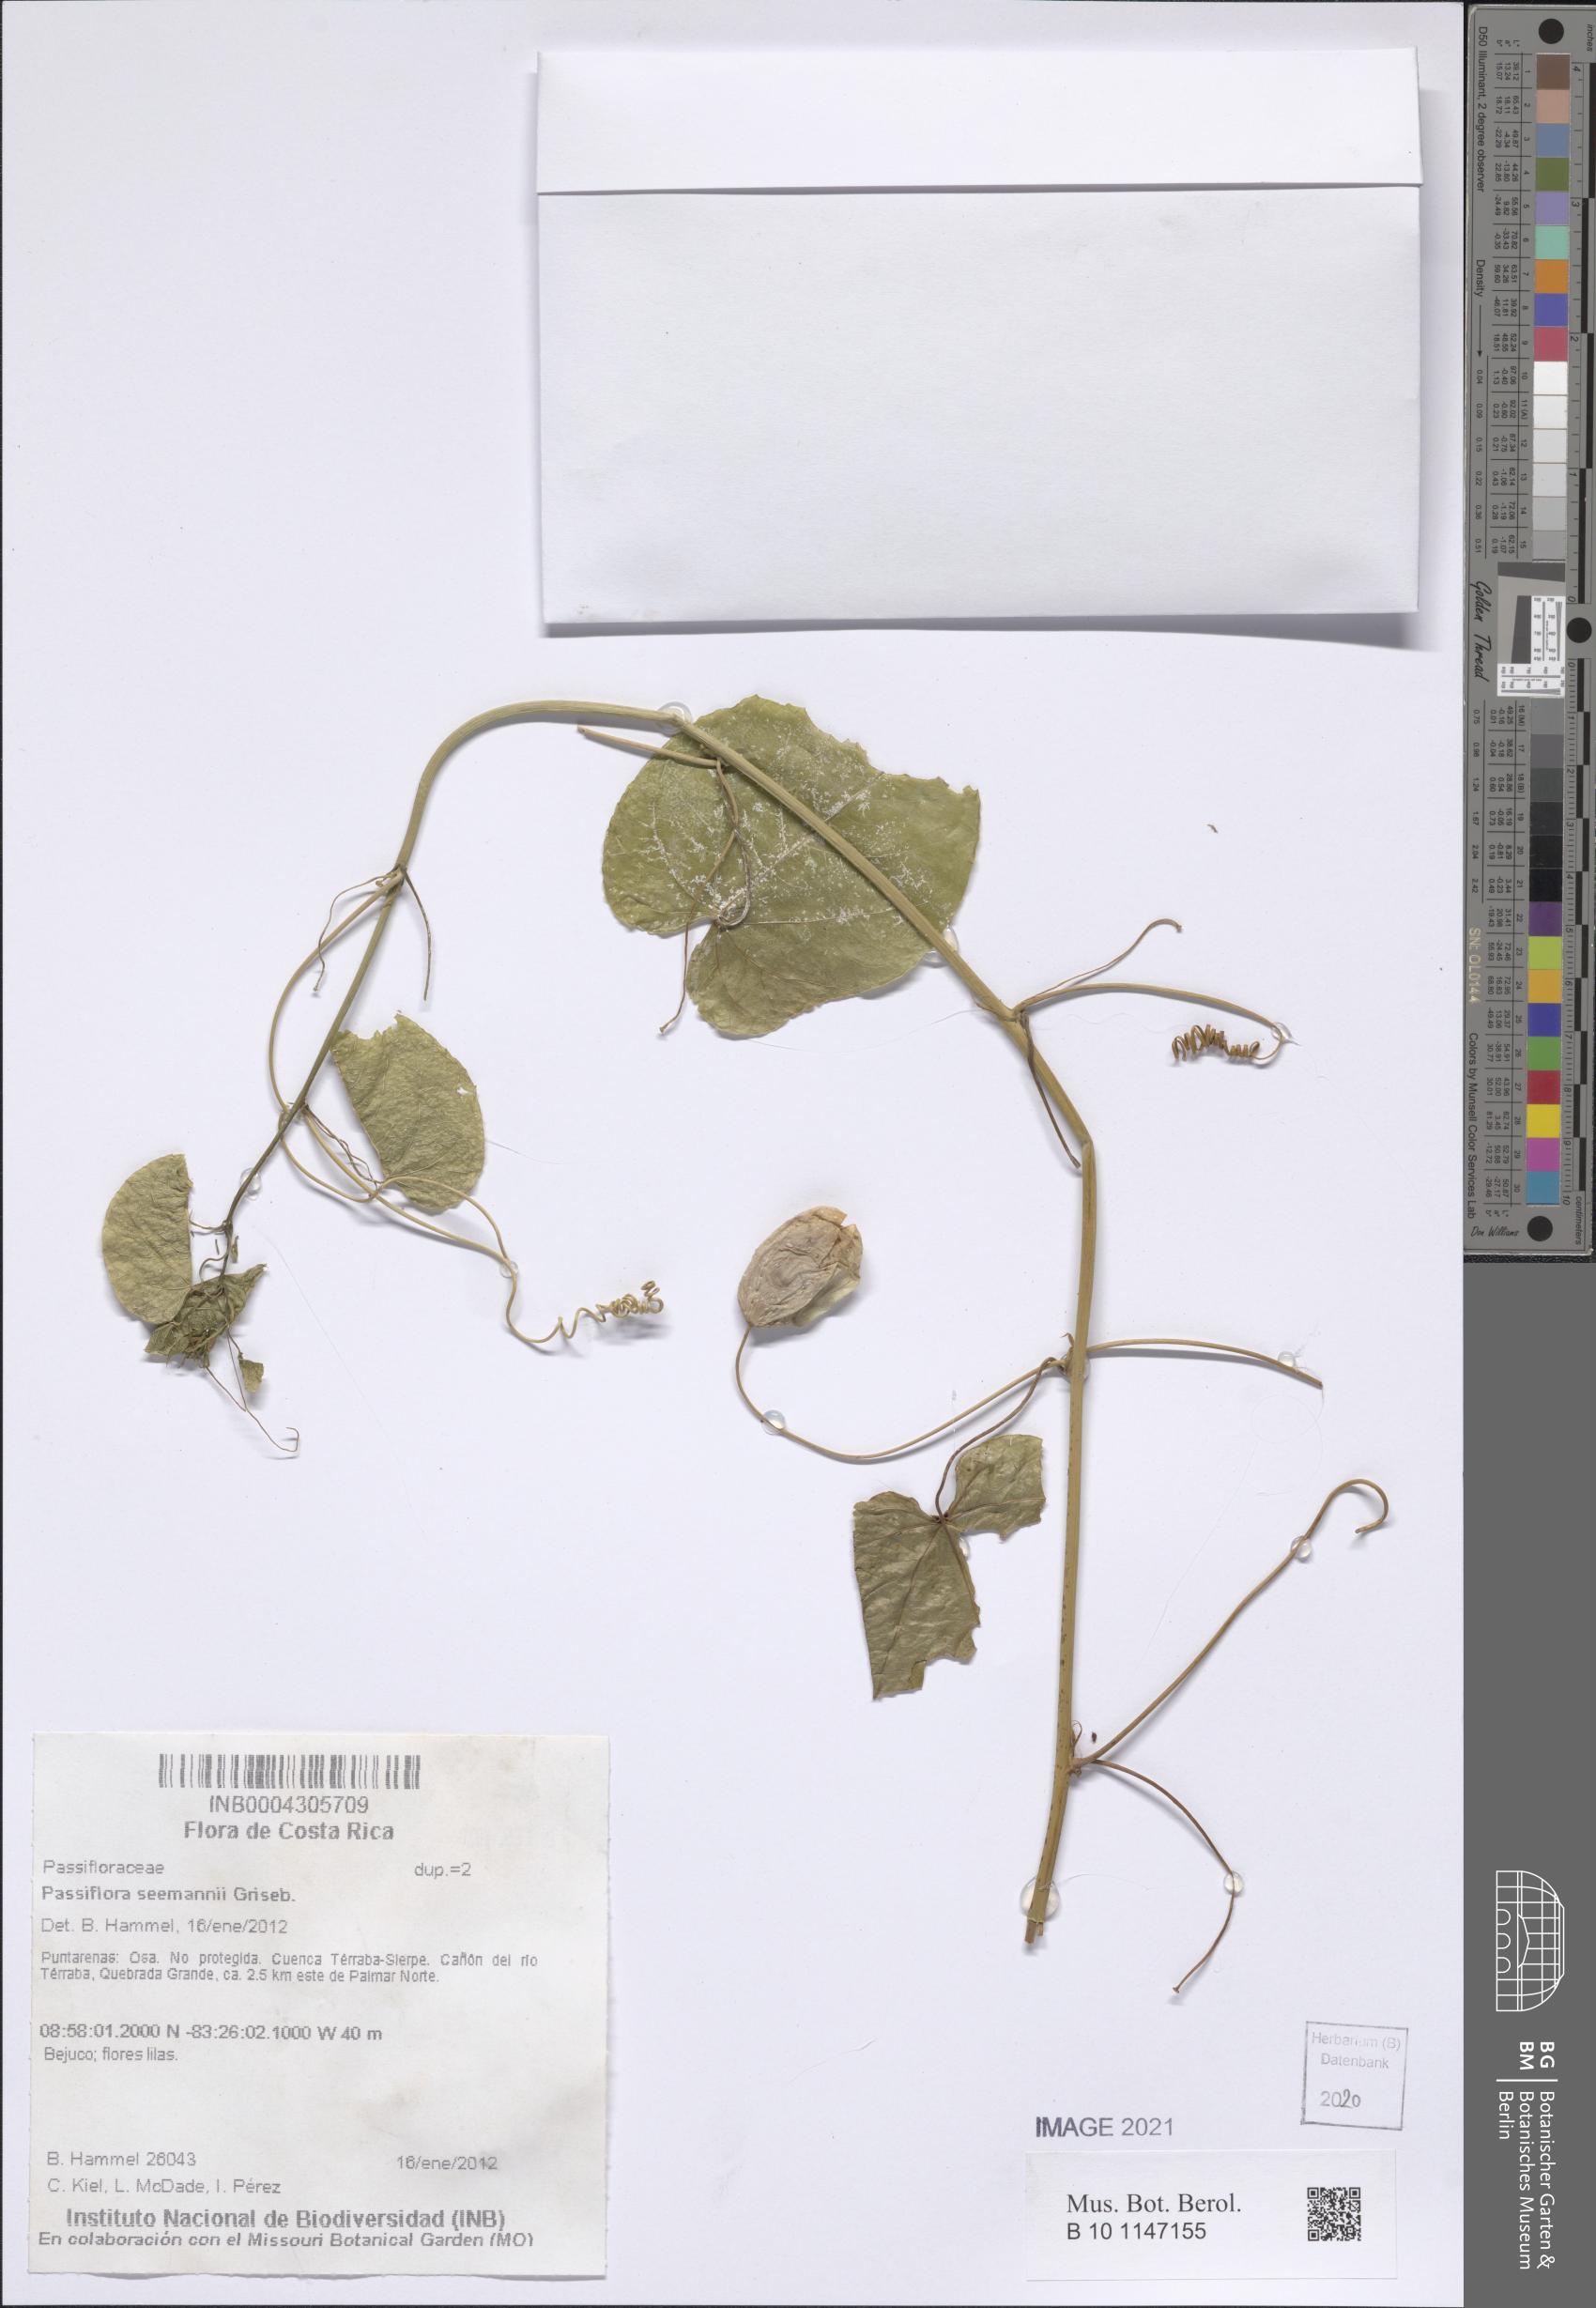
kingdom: Plantae
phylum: Tracheophyta
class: Magnoliopsida
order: Malpighiales
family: Passifloraceae
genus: Passiflora
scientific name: Passiflora seemannii
